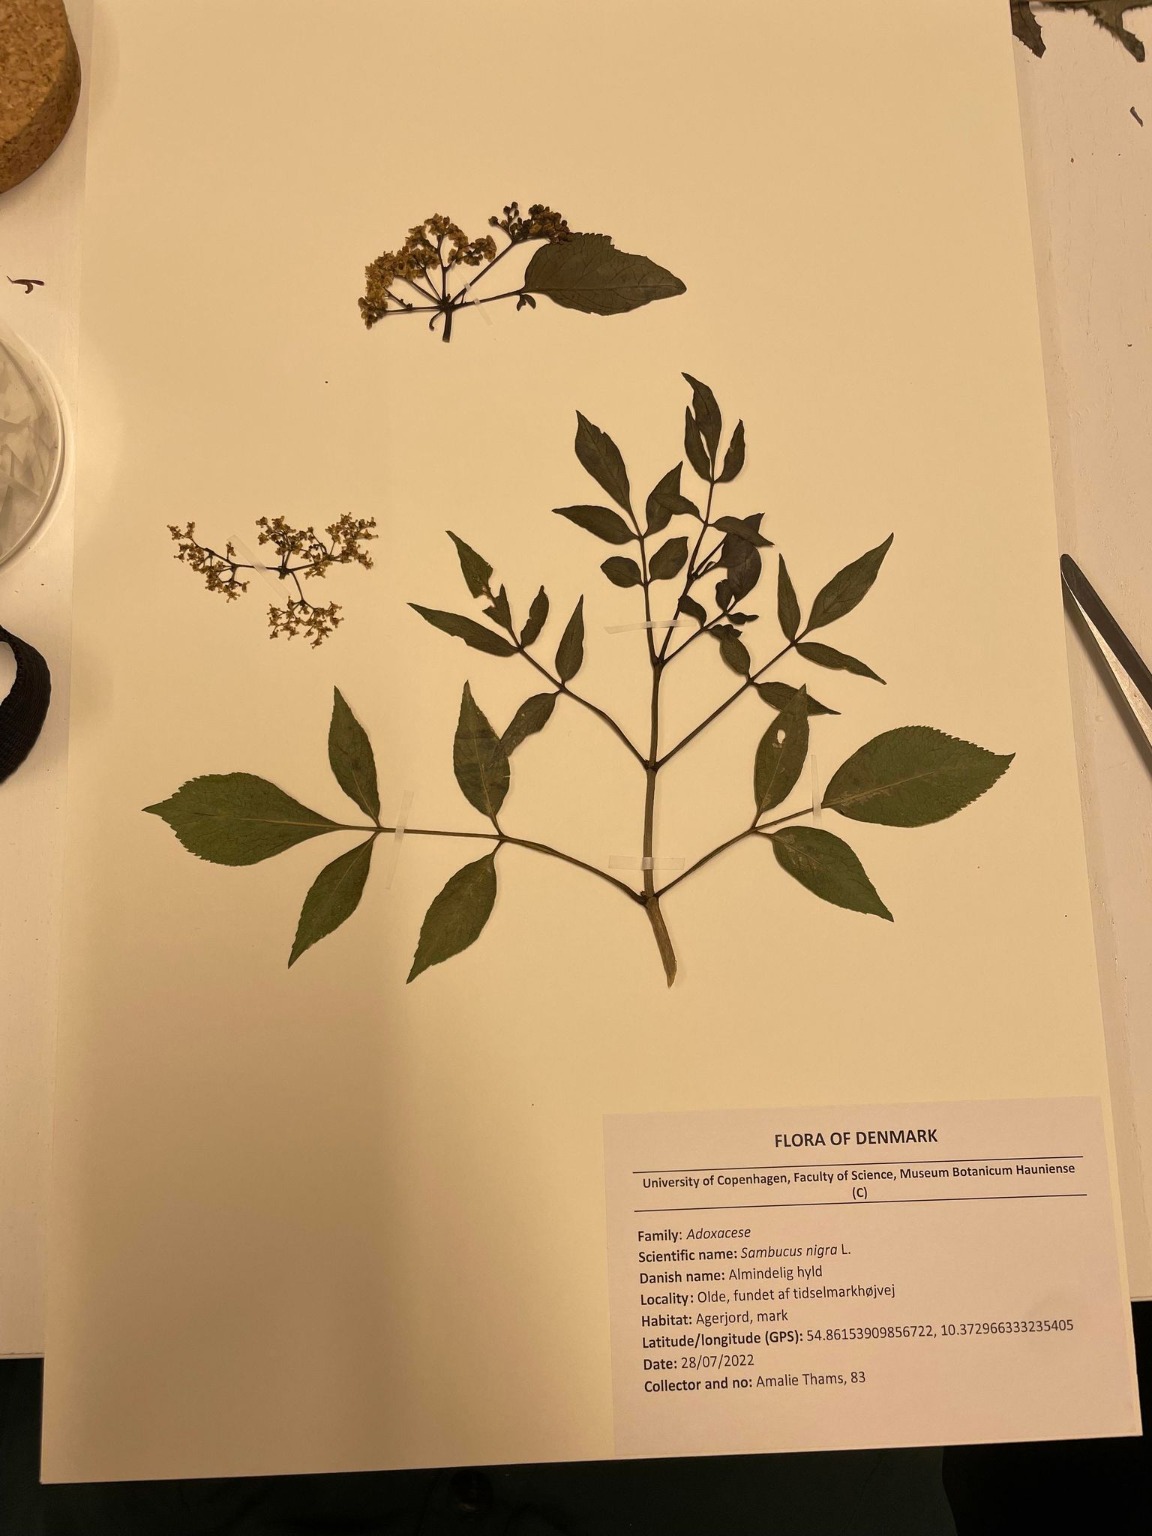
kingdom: Plantae
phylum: Tracheophyta
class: Magnoliopsida
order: Dipsacales
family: Viburnaceae
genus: Sambucus
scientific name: Sambucus nigra
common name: Almindelig hyld
